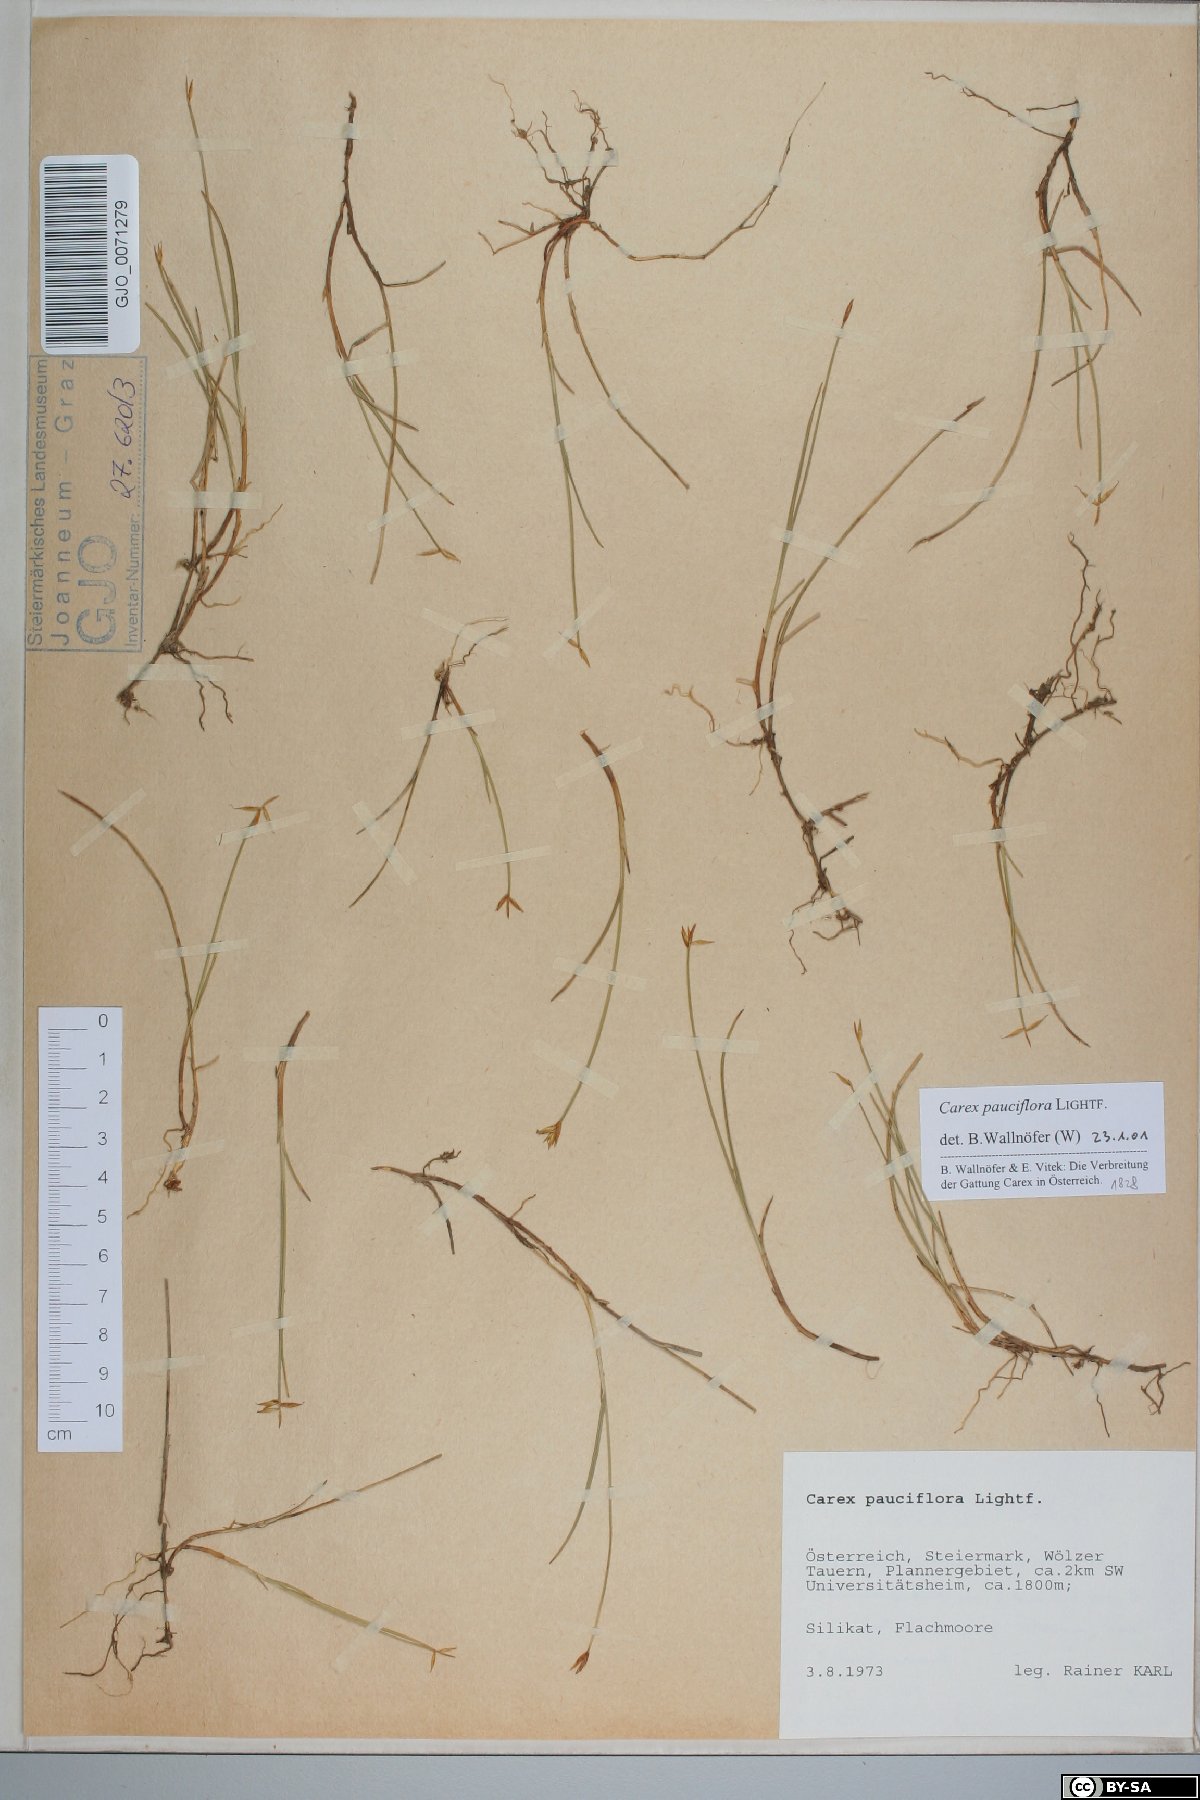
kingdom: Plantae
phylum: Tracheophyta
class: Liliopsida
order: Poales
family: Cyperaceae
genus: Carex
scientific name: Carex pauciflora
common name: Few-flowered sedge
